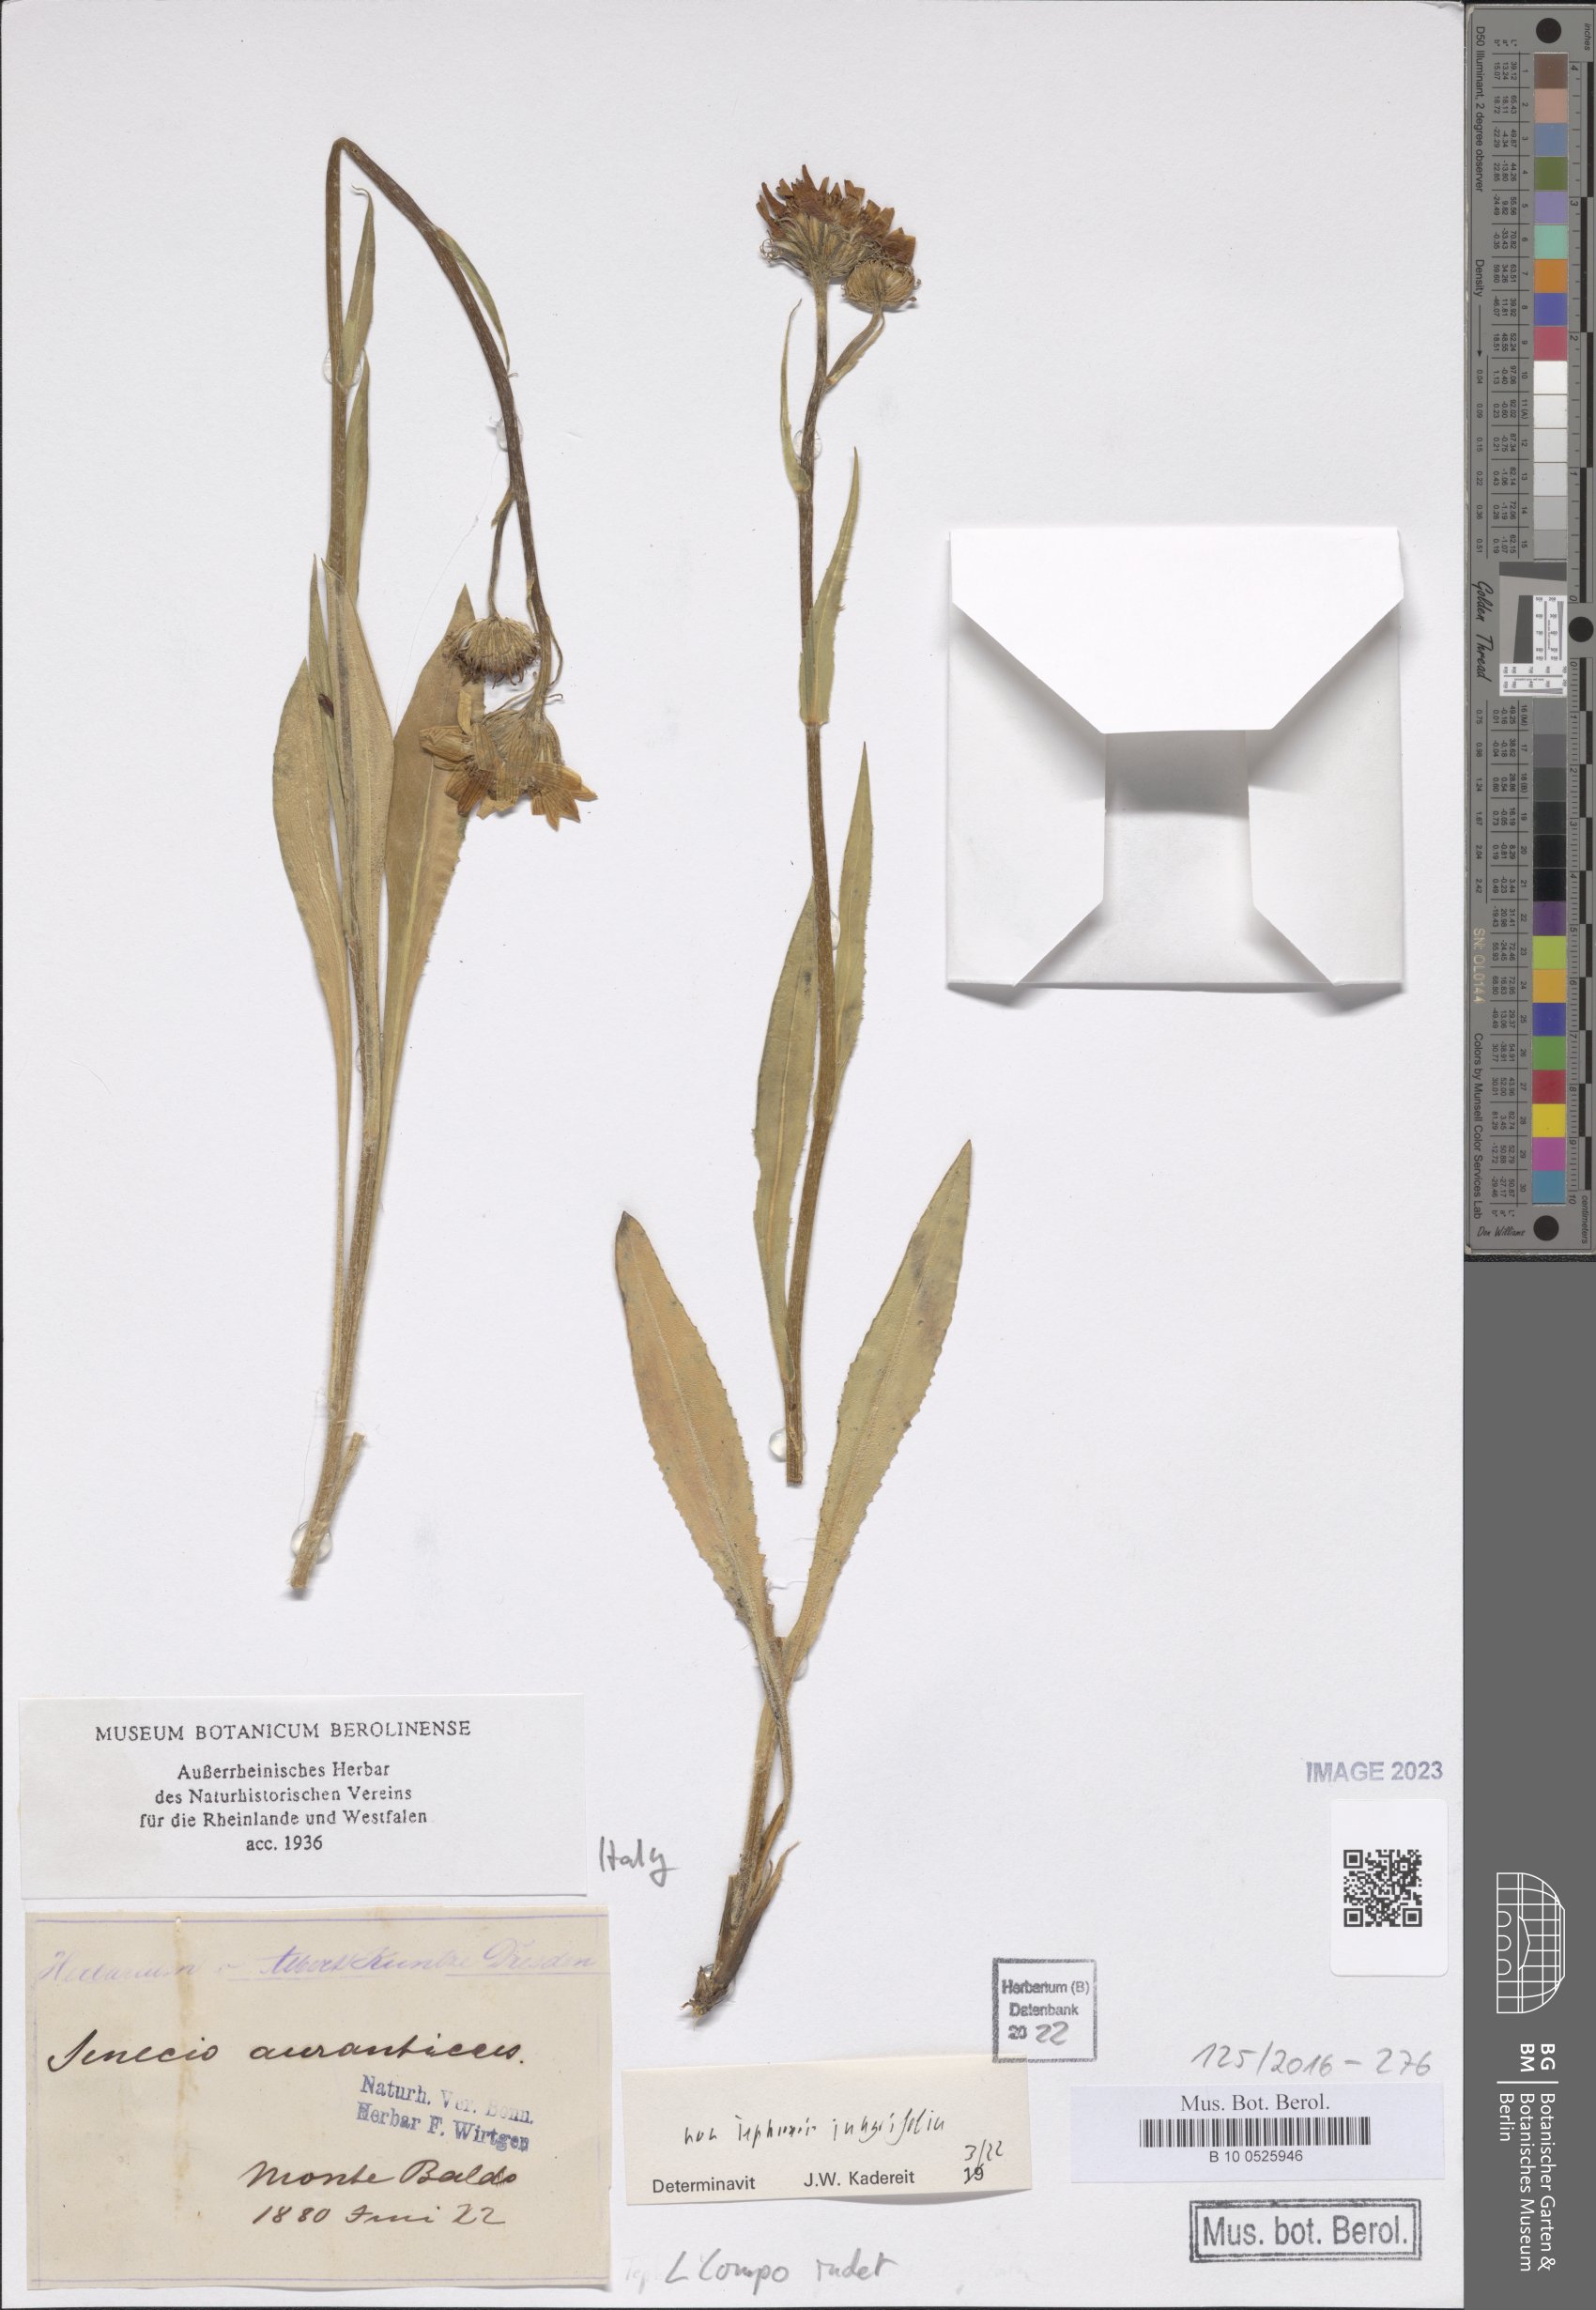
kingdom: Plantae
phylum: Tracheophyta
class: Magnoliopsida
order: Asterales
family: Asteraceae
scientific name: Asteraceae
